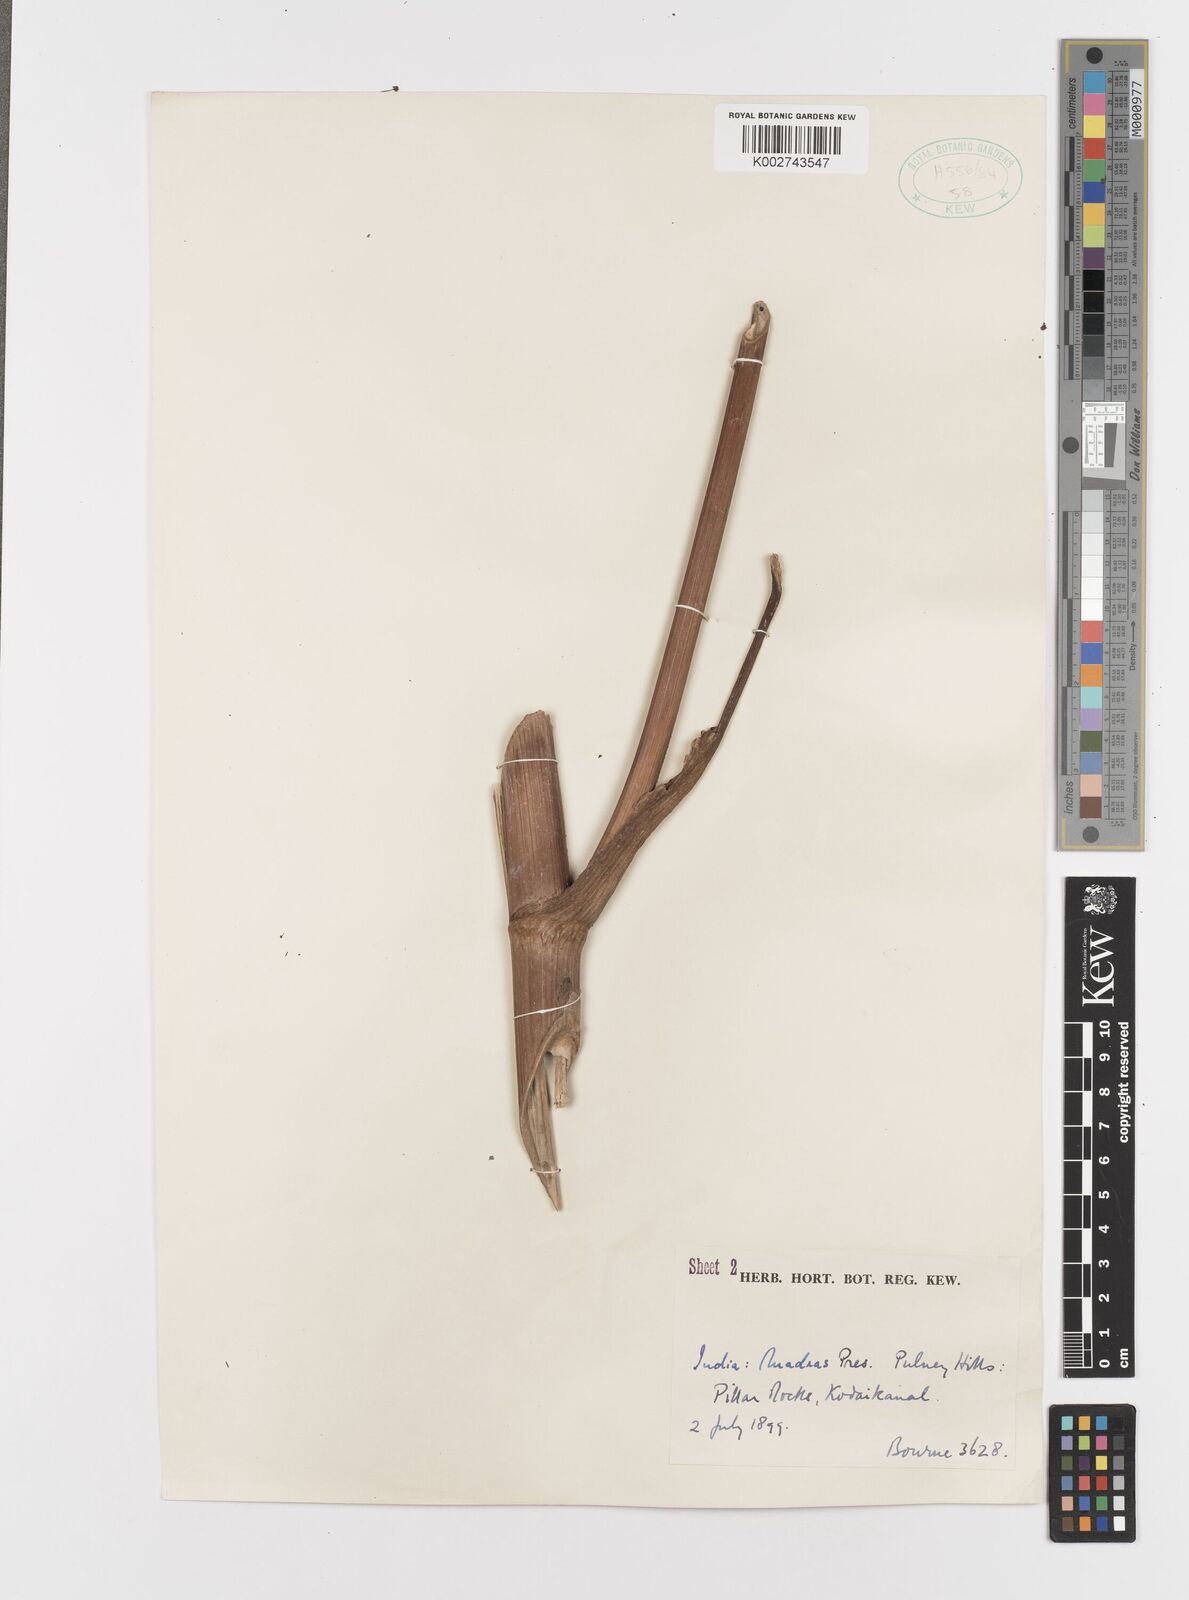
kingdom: Plantae
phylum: Tracheophyta
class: Magnoliopsida
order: Apiales
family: Apiaceae
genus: Tetrataenium
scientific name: Tetrataenium rigens
